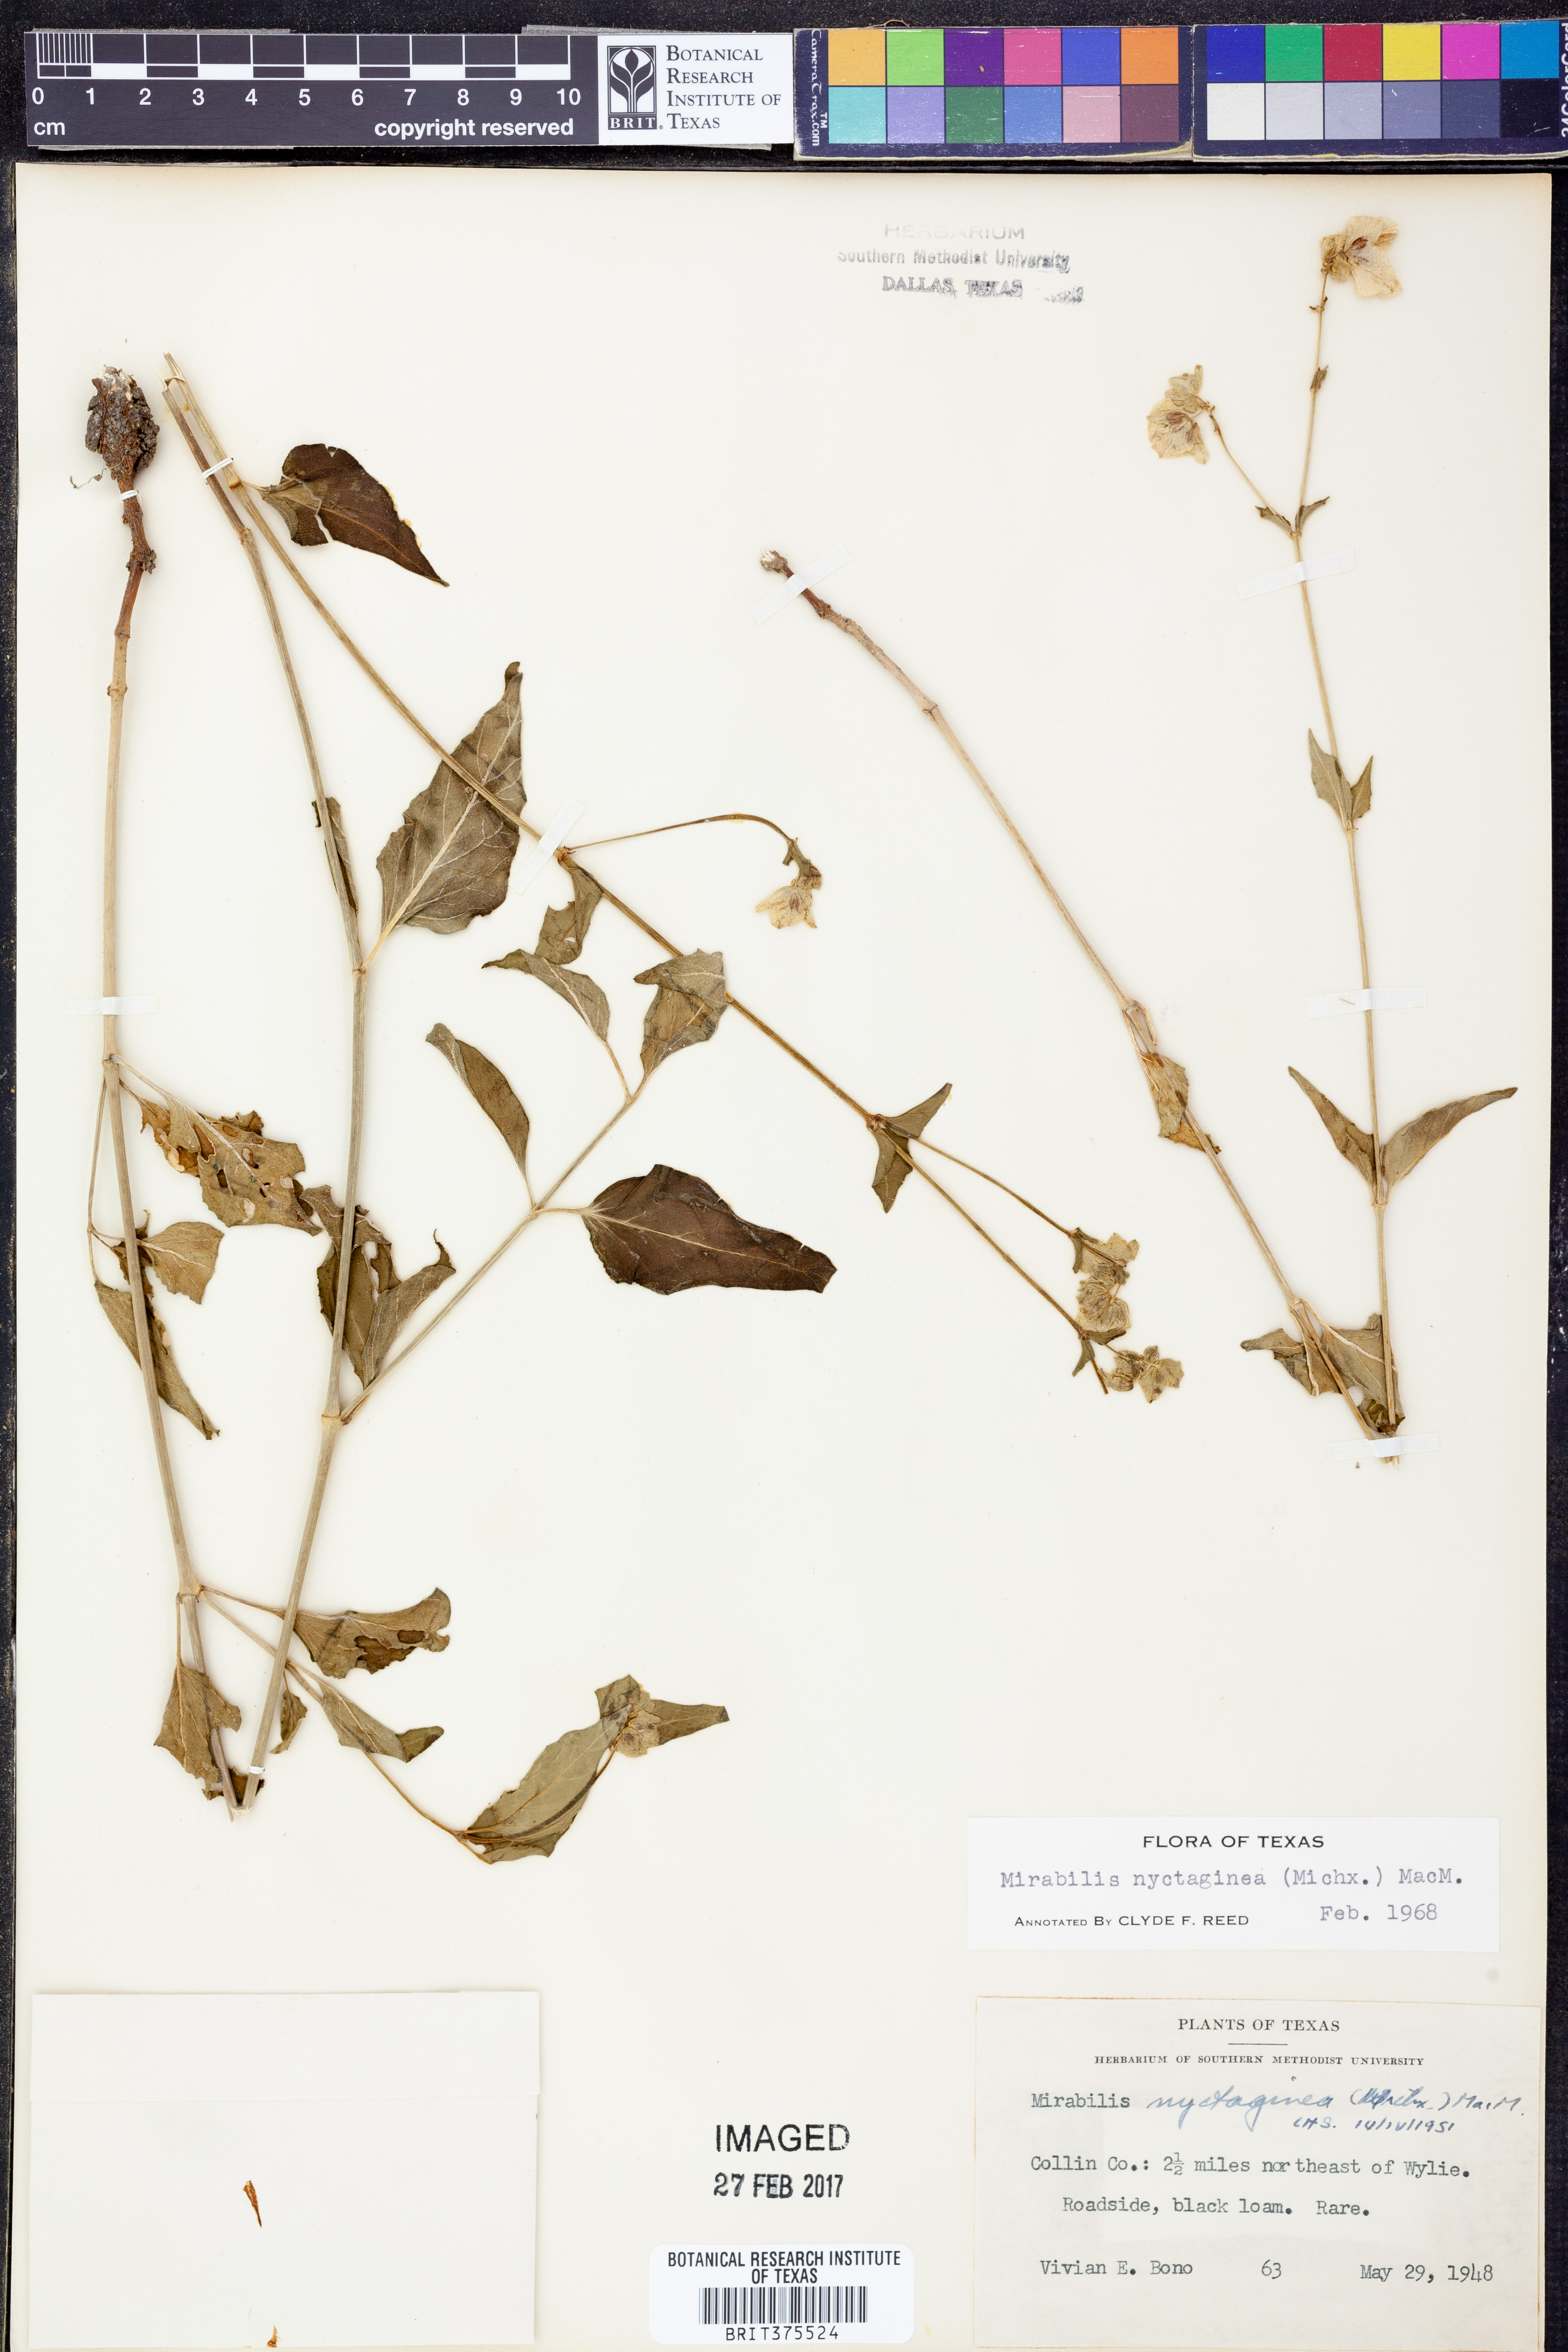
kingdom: Plantae
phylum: Tracheophyta
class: Magnoliopsida
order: Caryophyllales
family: Nyctaginaceae
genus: Mirabilis
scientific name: Mirabilis nyctaginea
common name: Umbrella wort
